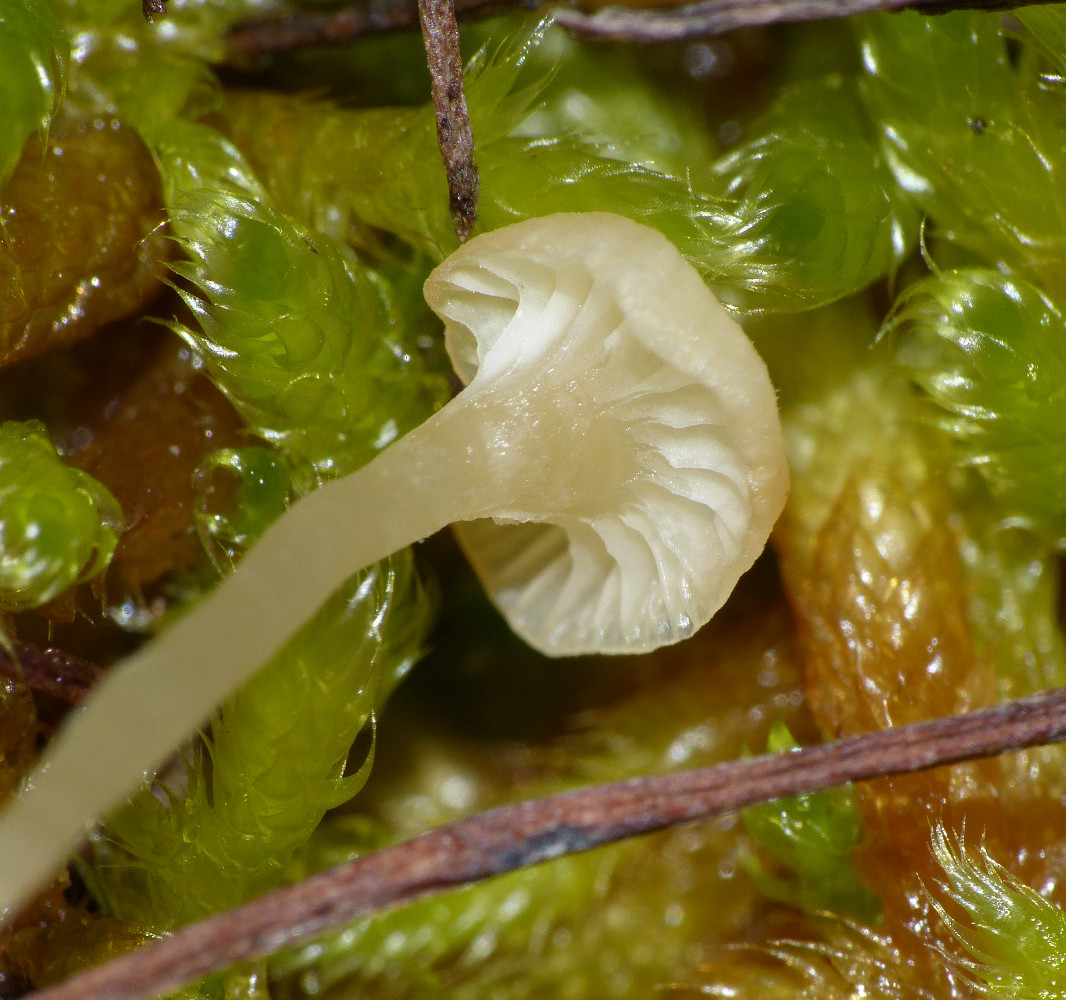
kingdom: Fungi
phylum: Basidiomycota
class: Agaricomycetes
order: Hymenochaetales
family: Rickenellaceae
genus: Rickenella
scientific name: Rickenella fibula
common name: orange mosnavlehat
